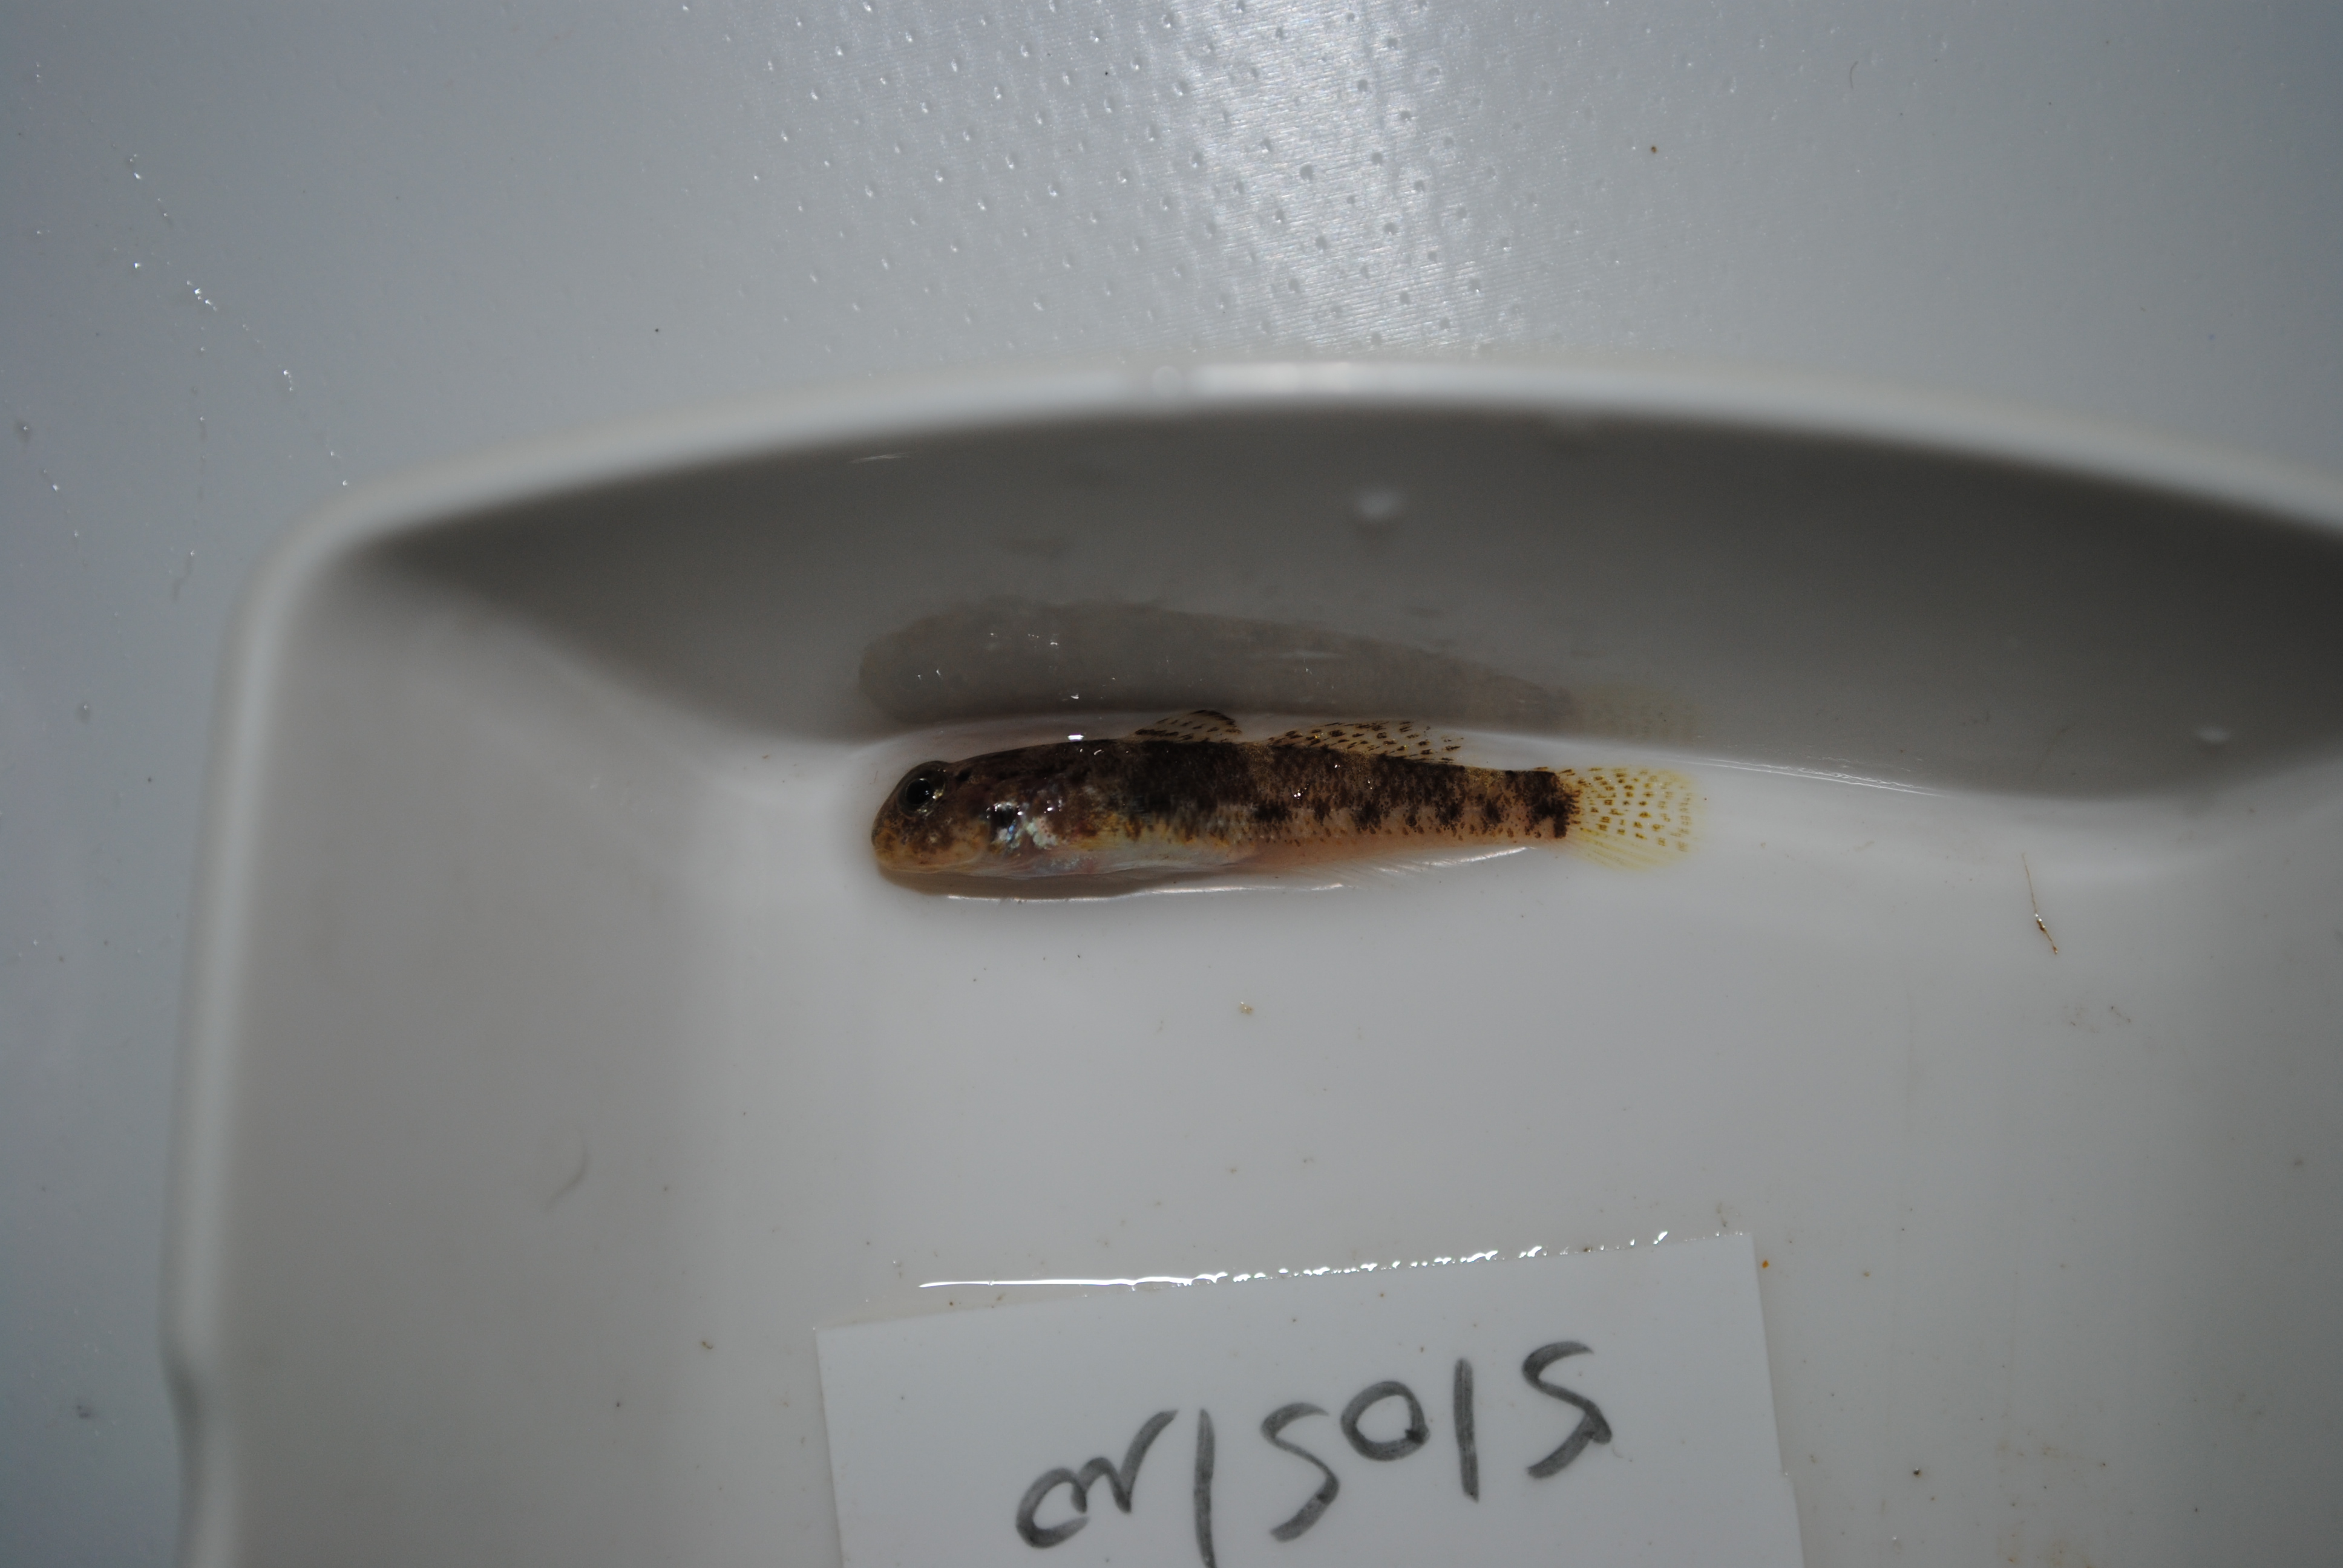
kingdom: Animalia
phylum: Chordata
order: Perciformes
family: Gobiidae
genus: Coryogalops
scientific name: Coryogalops
